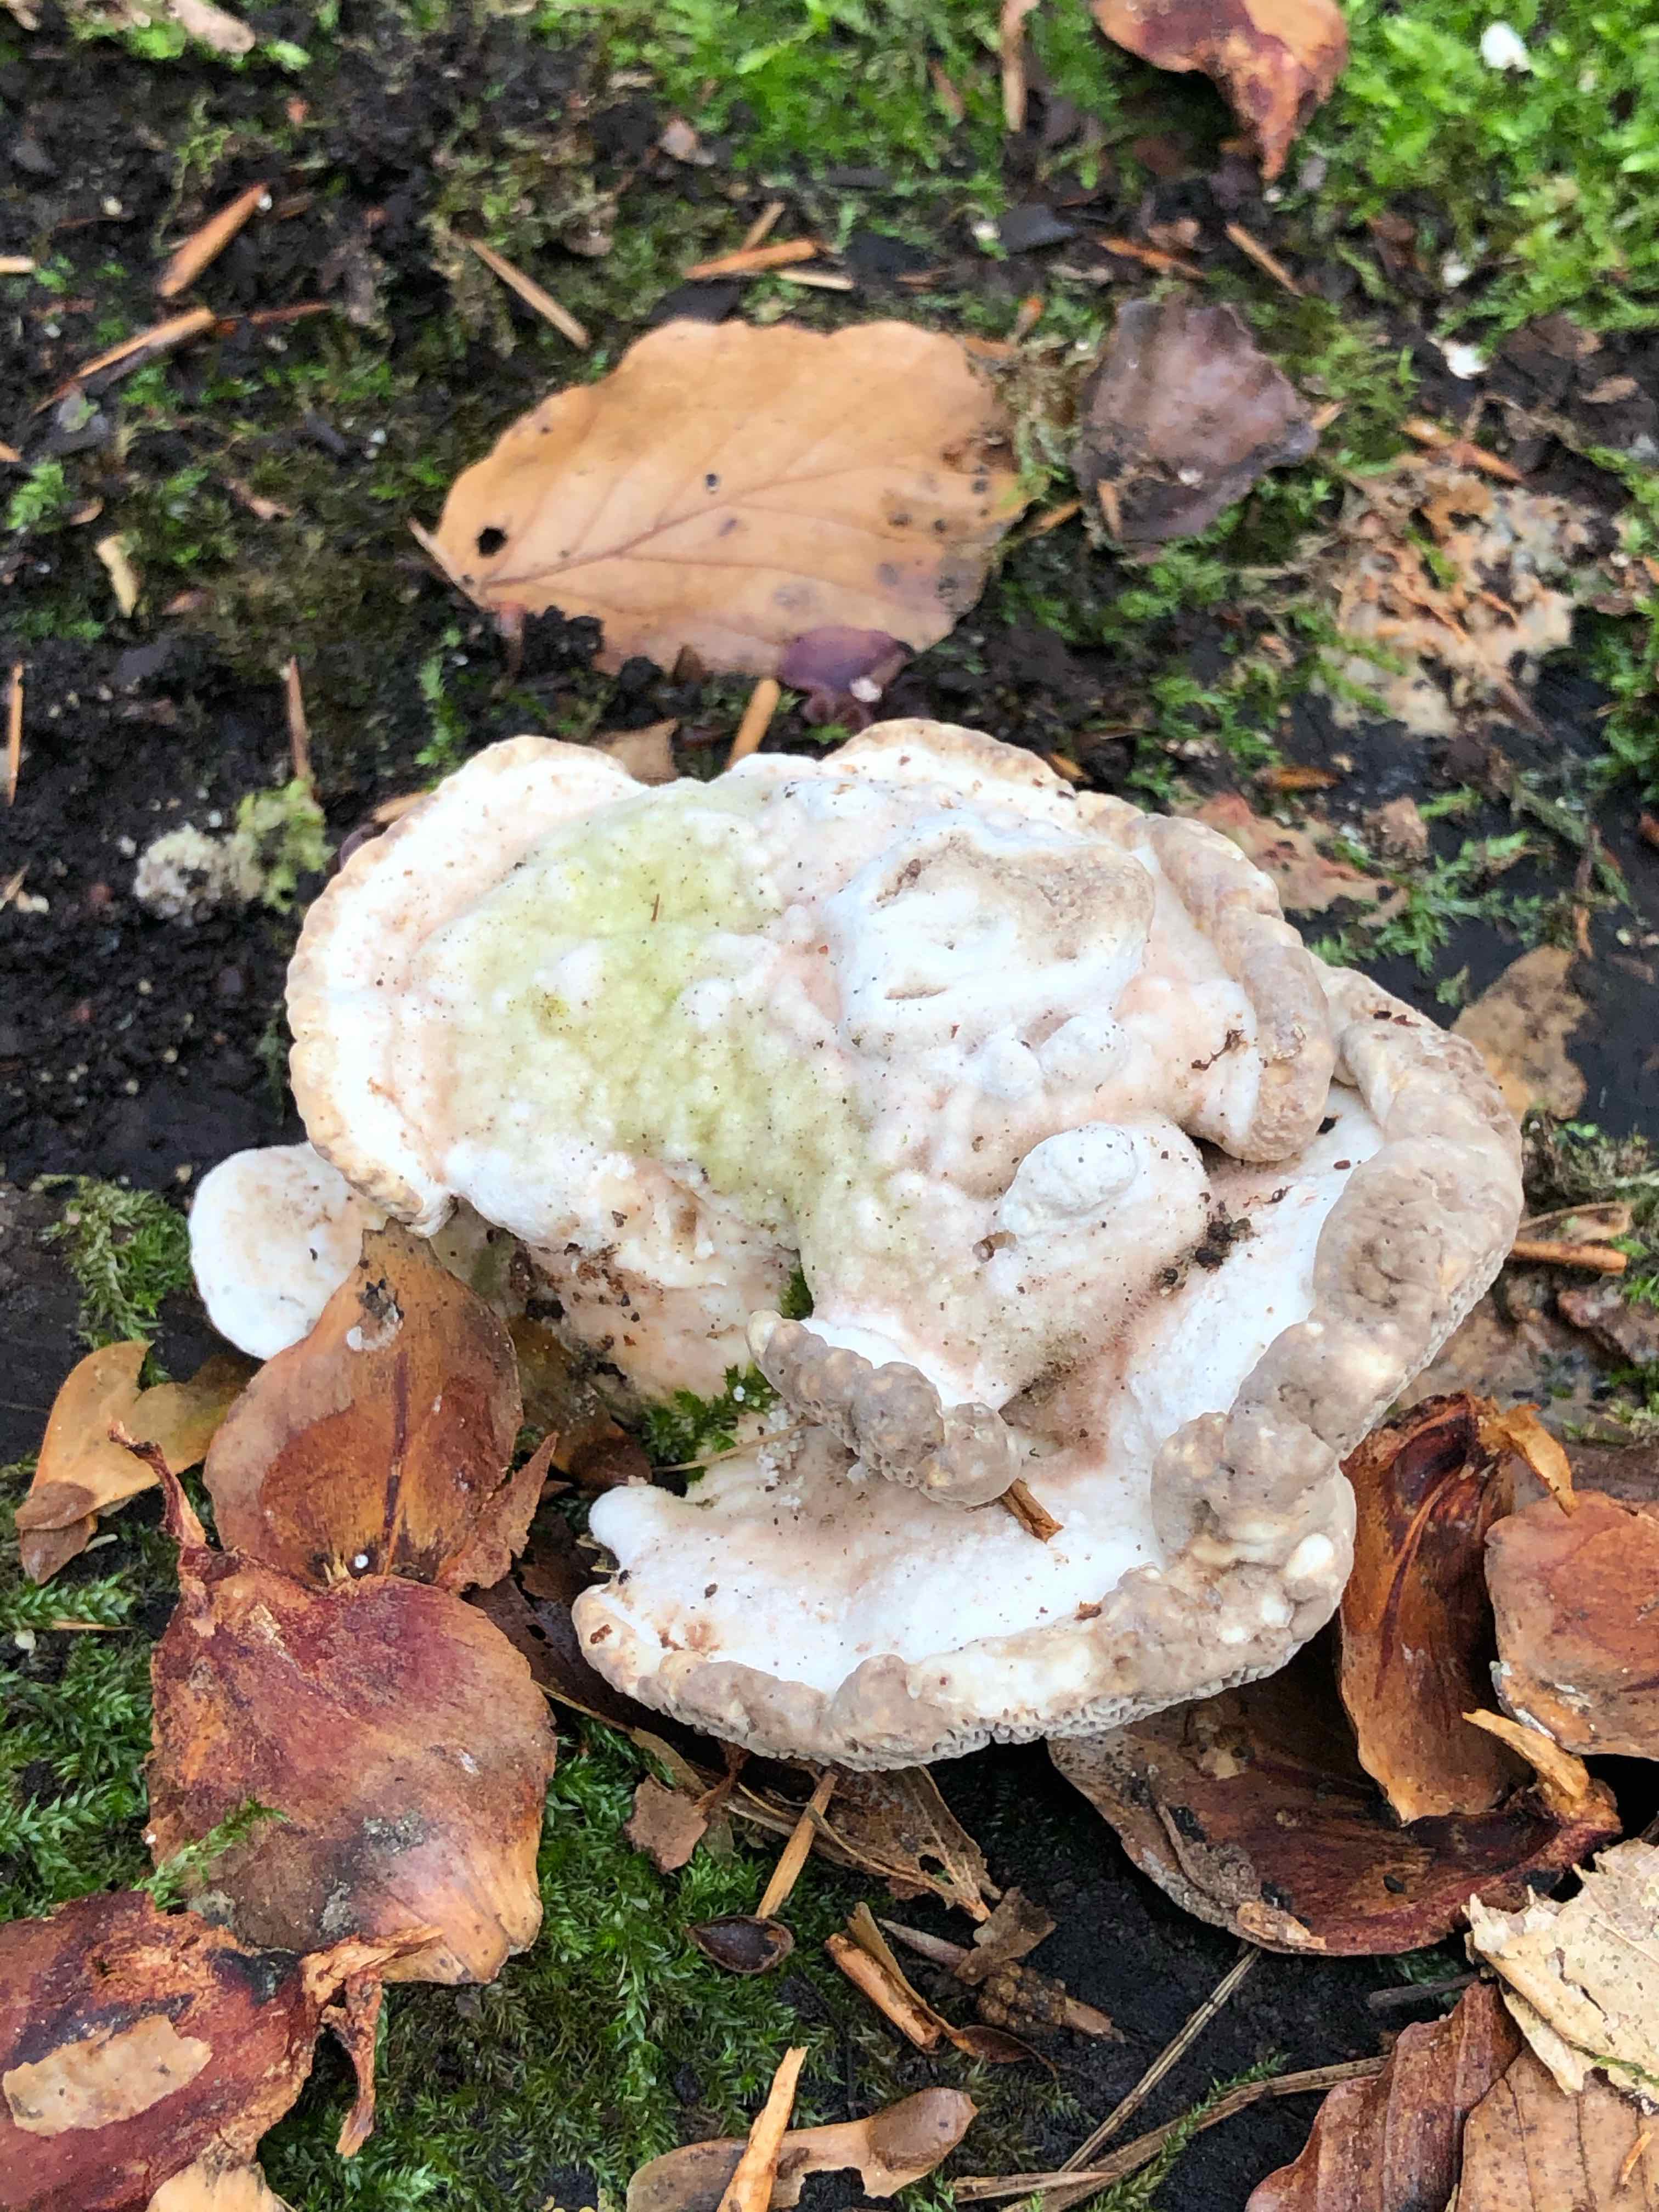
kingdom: Fungi
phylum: Basidiomycota
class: Agaricomycetes
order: Polyporales
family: Polyporaceae
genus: Trametes
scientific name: Trametes gibbosa
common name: puklet læderporesvamp
